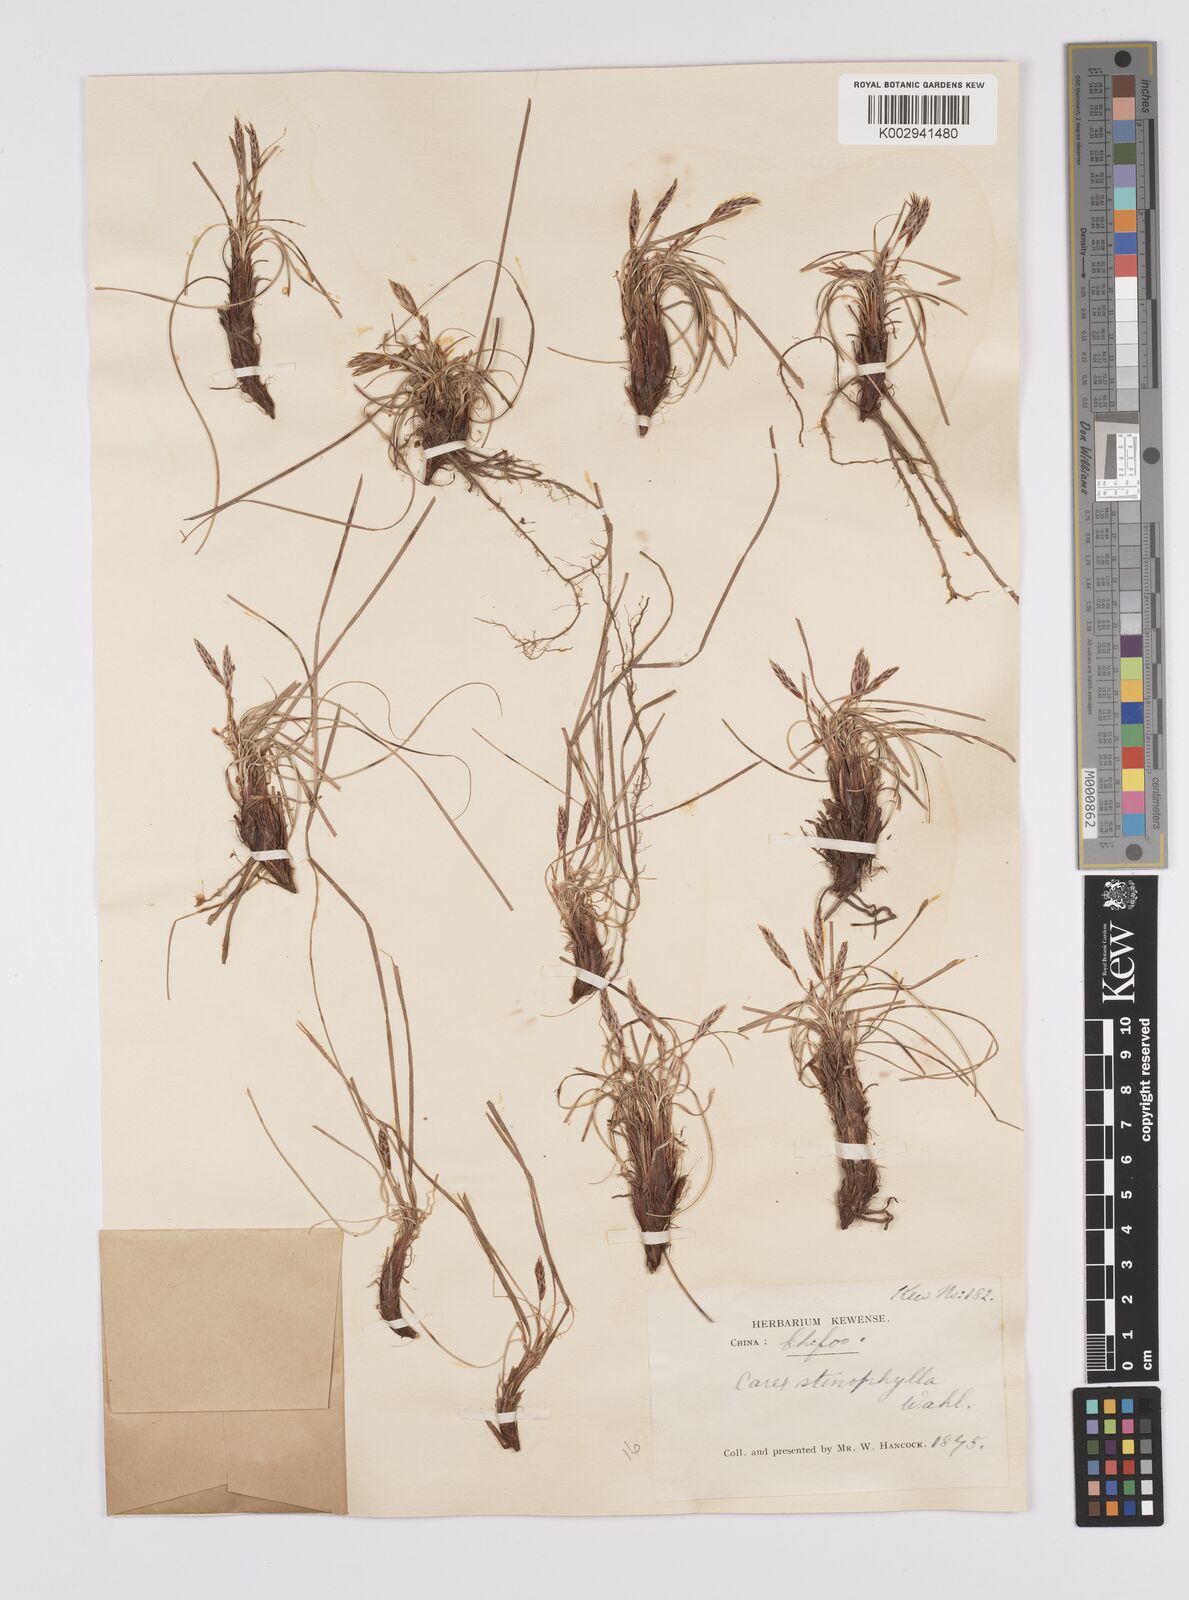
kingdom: Plantae
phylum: Tracheophyta
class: Liliopsida
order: Poales
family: Cyperaceae
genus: Carex
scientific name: Carex humilis
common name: Dwarf sedge
